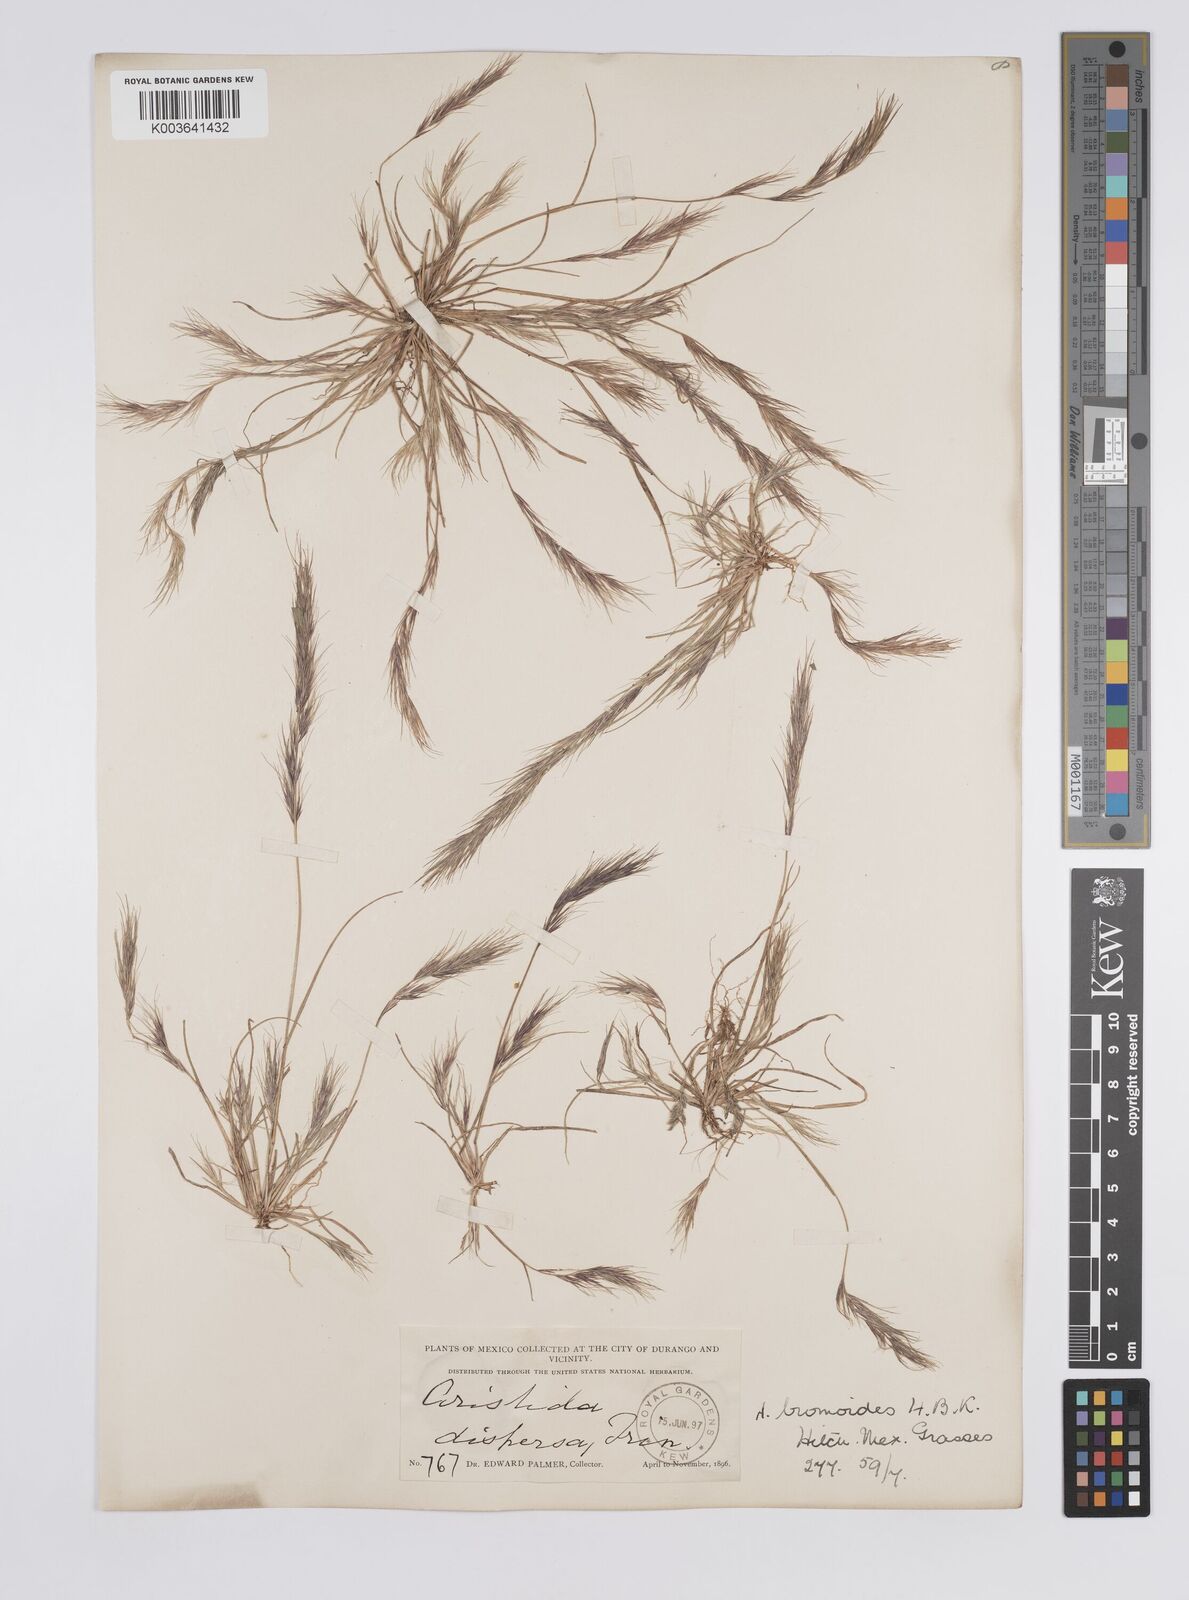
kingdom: Plantae
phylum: Tracheophyta
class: Liliopsida
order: Poales
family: Poaceae
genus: Aristida
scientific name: Aristida adscensionis
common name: Sixweeks threeawn
